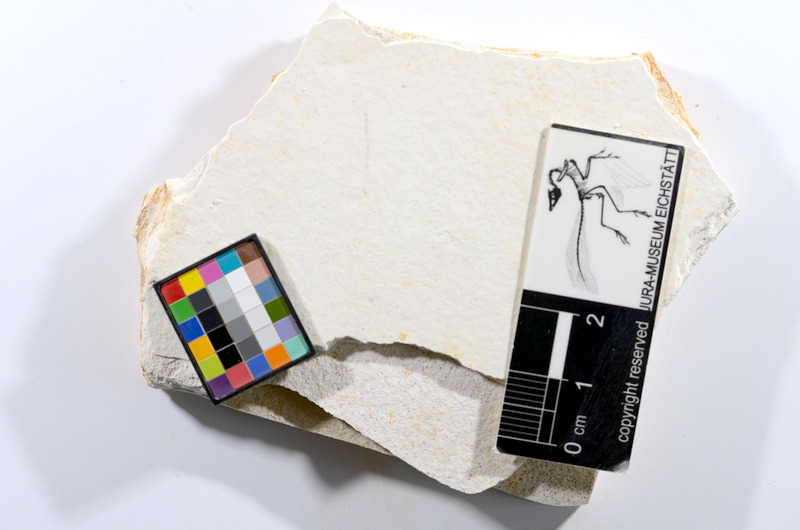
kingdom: Animalia
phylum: Chordata
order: Salmoniformes
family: Orthogonikleithridae
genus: Orthogonikleithrus
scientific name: Orthogonikleithrus hoelli
